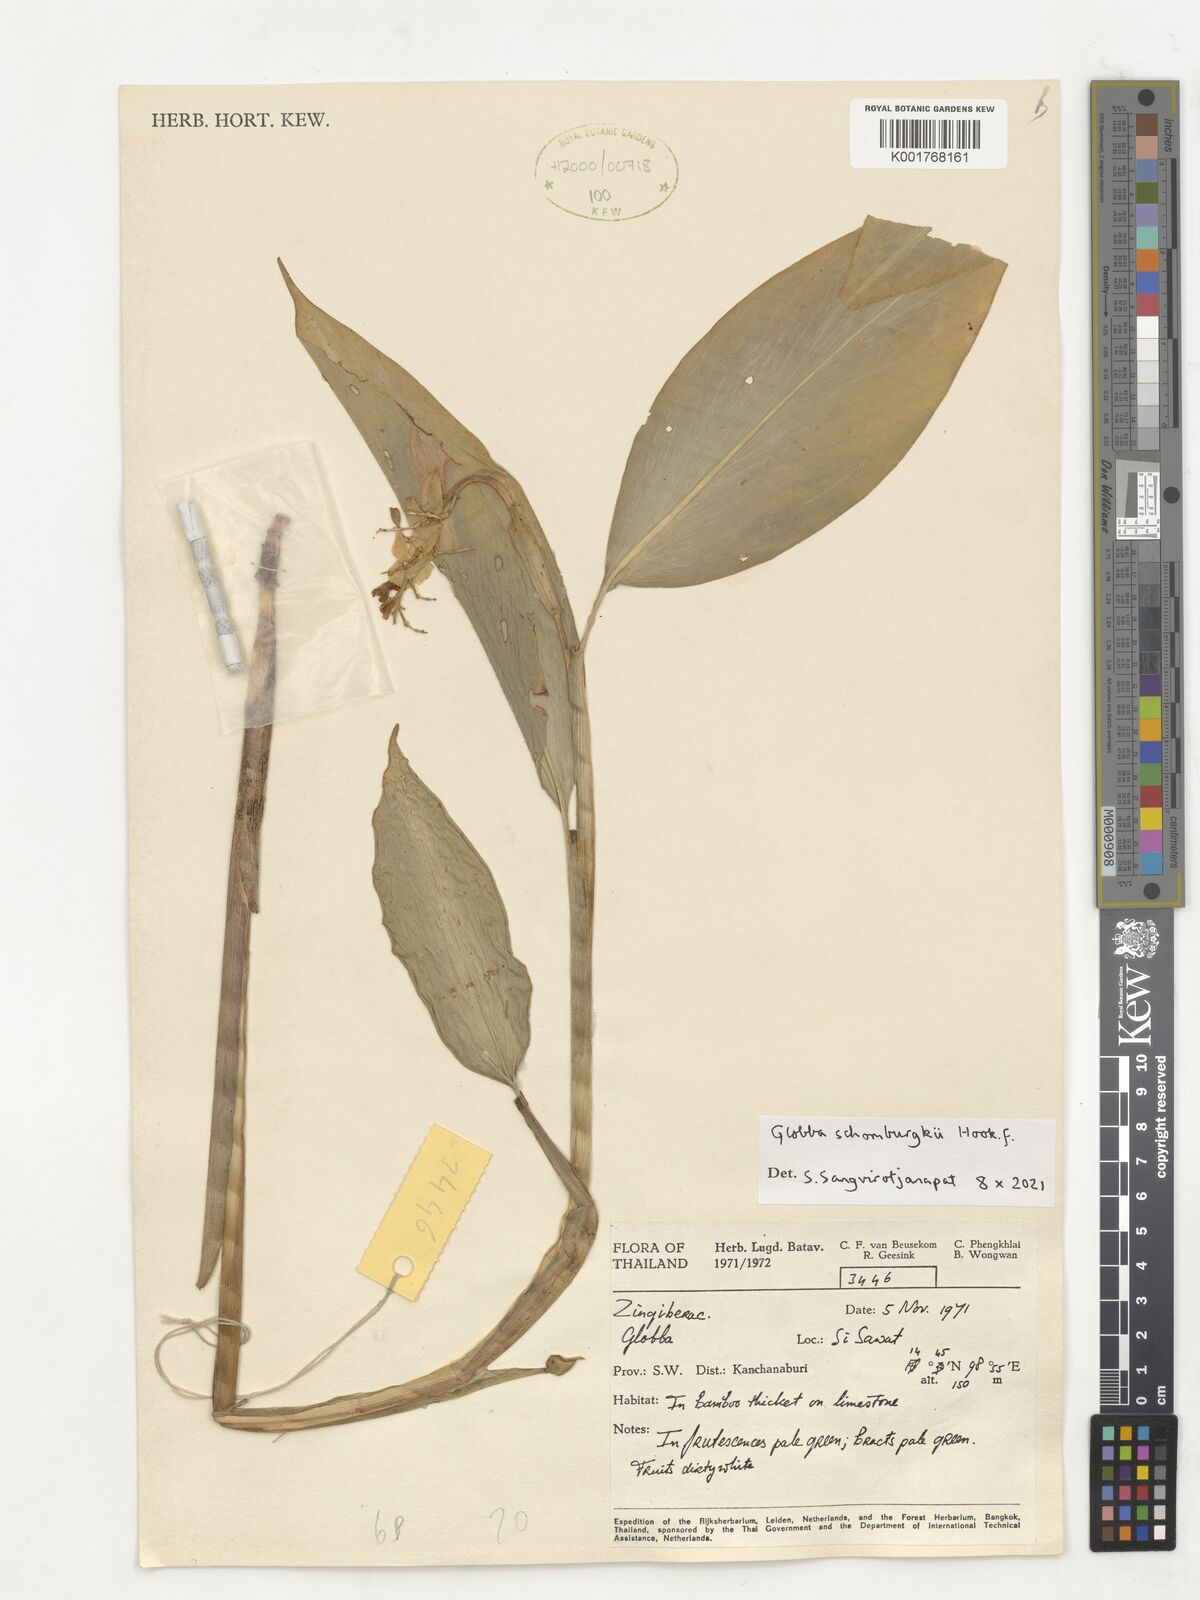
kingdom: Plantae
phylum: Tracheophyta
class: Liliopsida
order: Zingiberales
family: Zingiberaceae
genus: Globba
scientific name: Globba schomburgkii
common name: Dancing girl ginger
